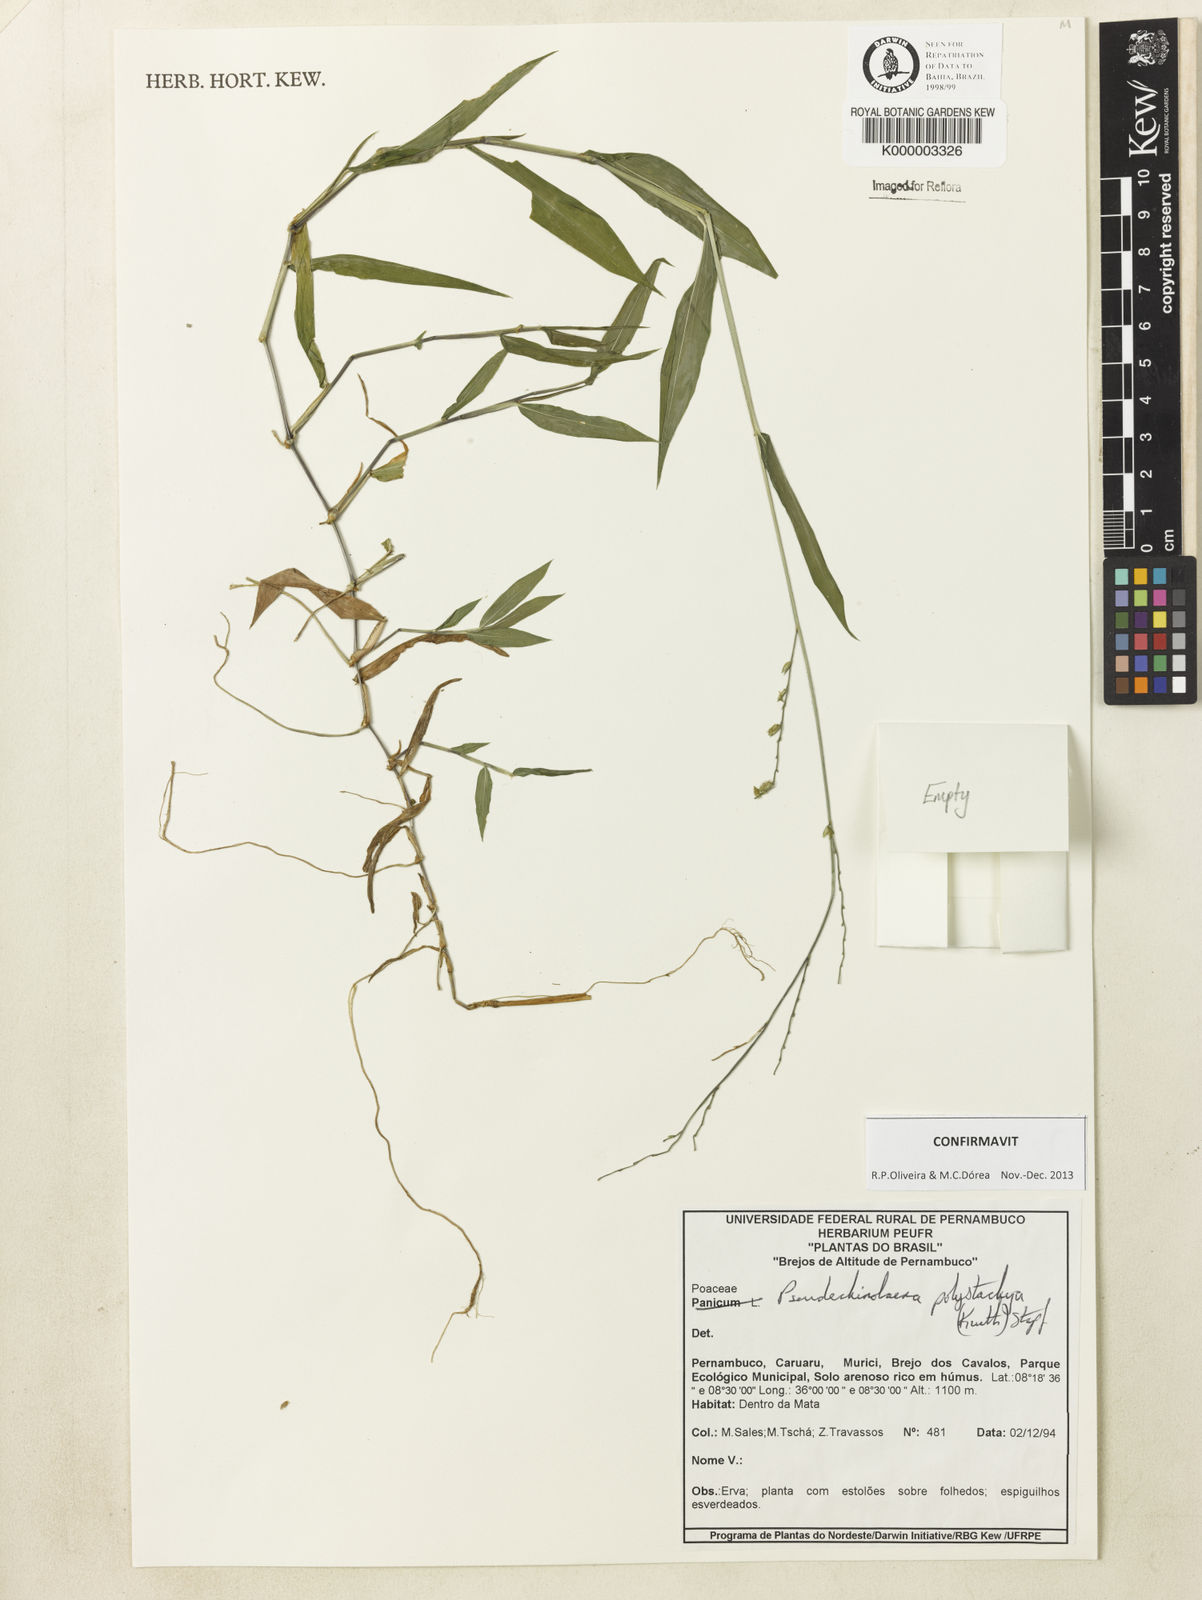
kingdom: Plantae
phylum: Tracheophyta
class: Liliopsida
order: Poales
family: Poaceae
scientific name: Poaceae
